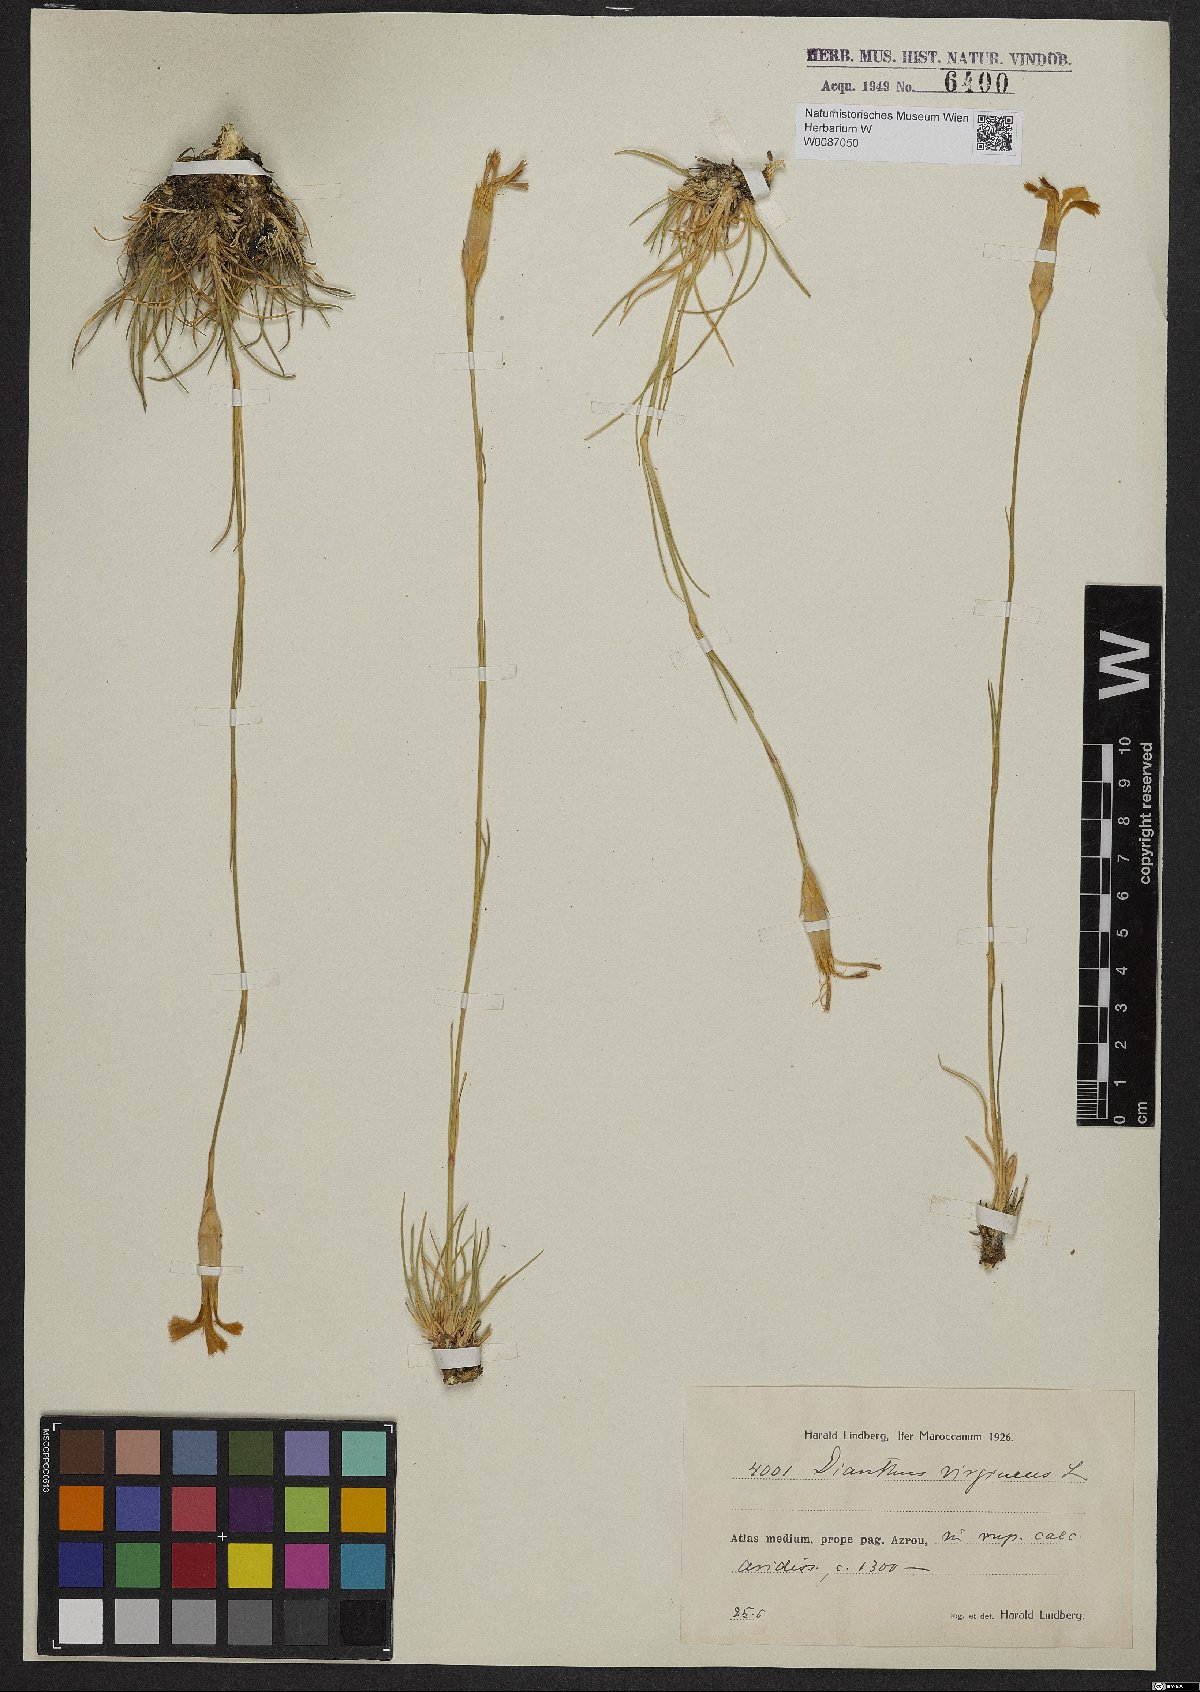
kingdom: Plantae
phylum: Tracheophyta
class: Magnoliopsida
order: Caryophyllales
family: Caryophyllaceae
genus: Dianthus
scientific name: Dianthus virgineus
